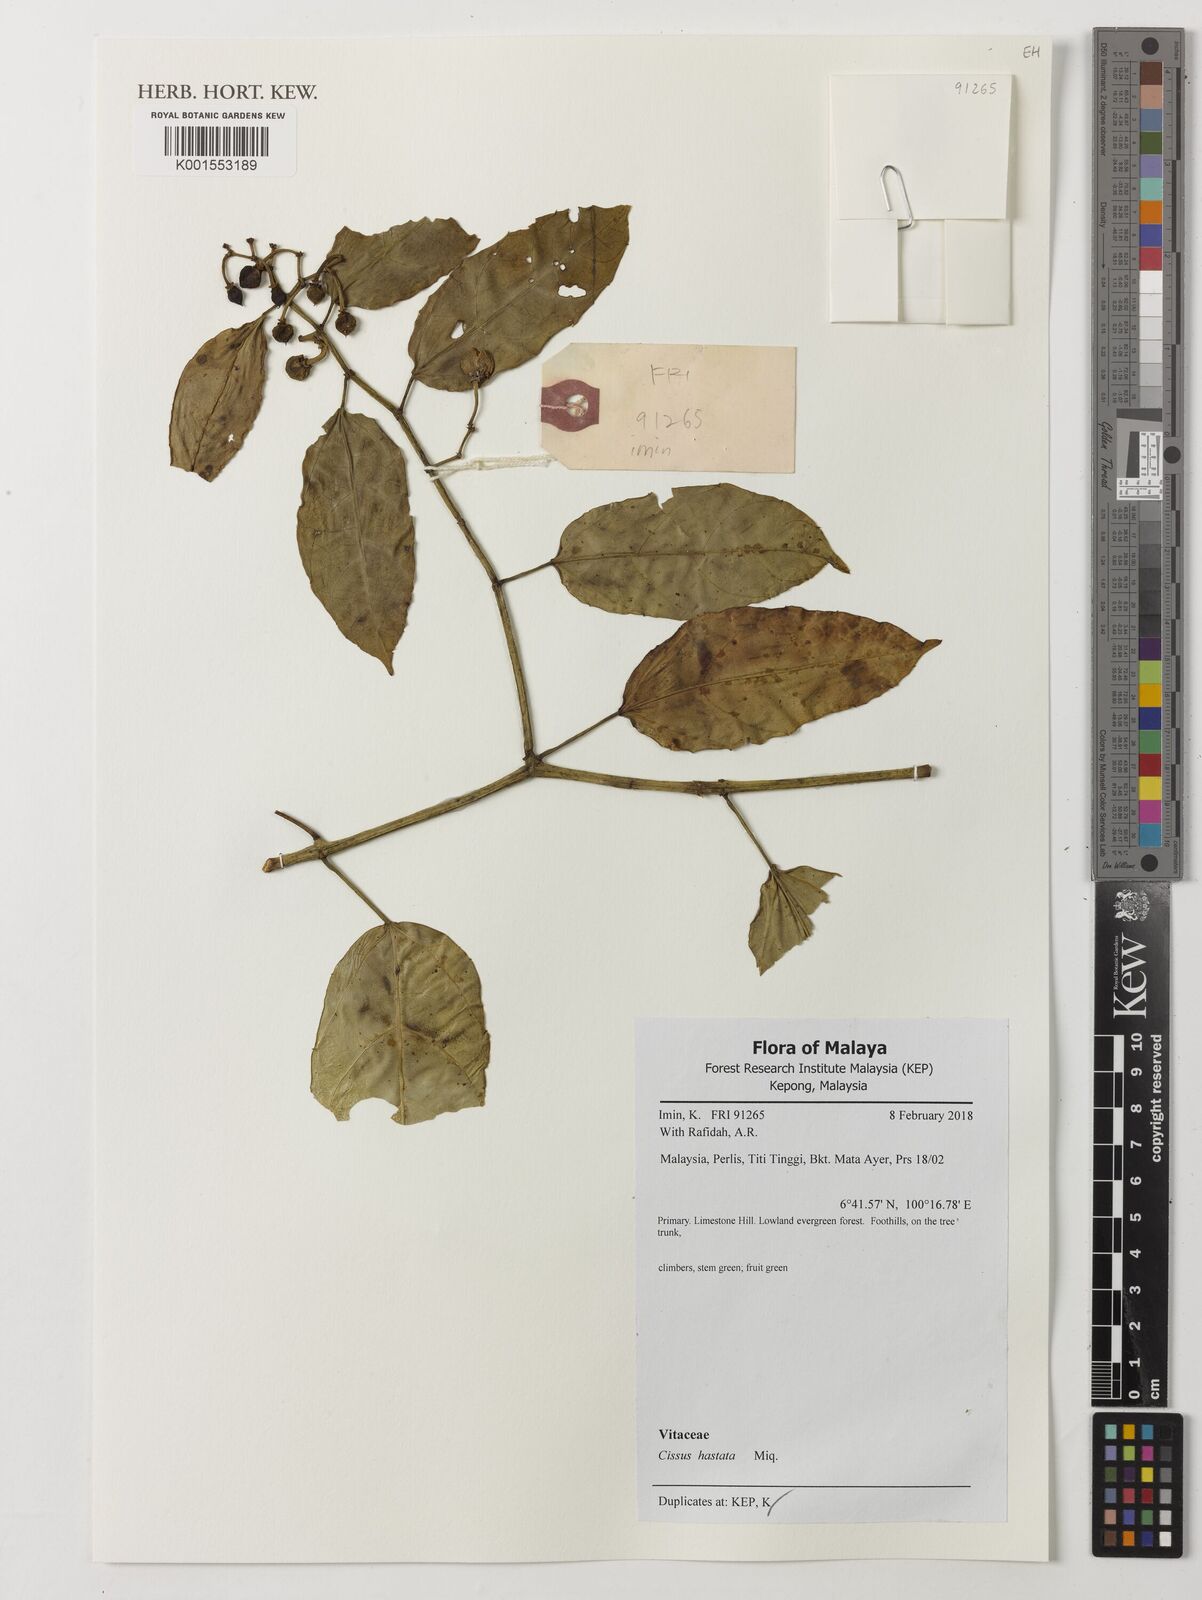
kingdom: Plantae
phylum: Tracheophyta
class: Magnoliopsida
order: Vitales
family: Vitaceae
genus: Cissus
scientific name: Cissus hastata
